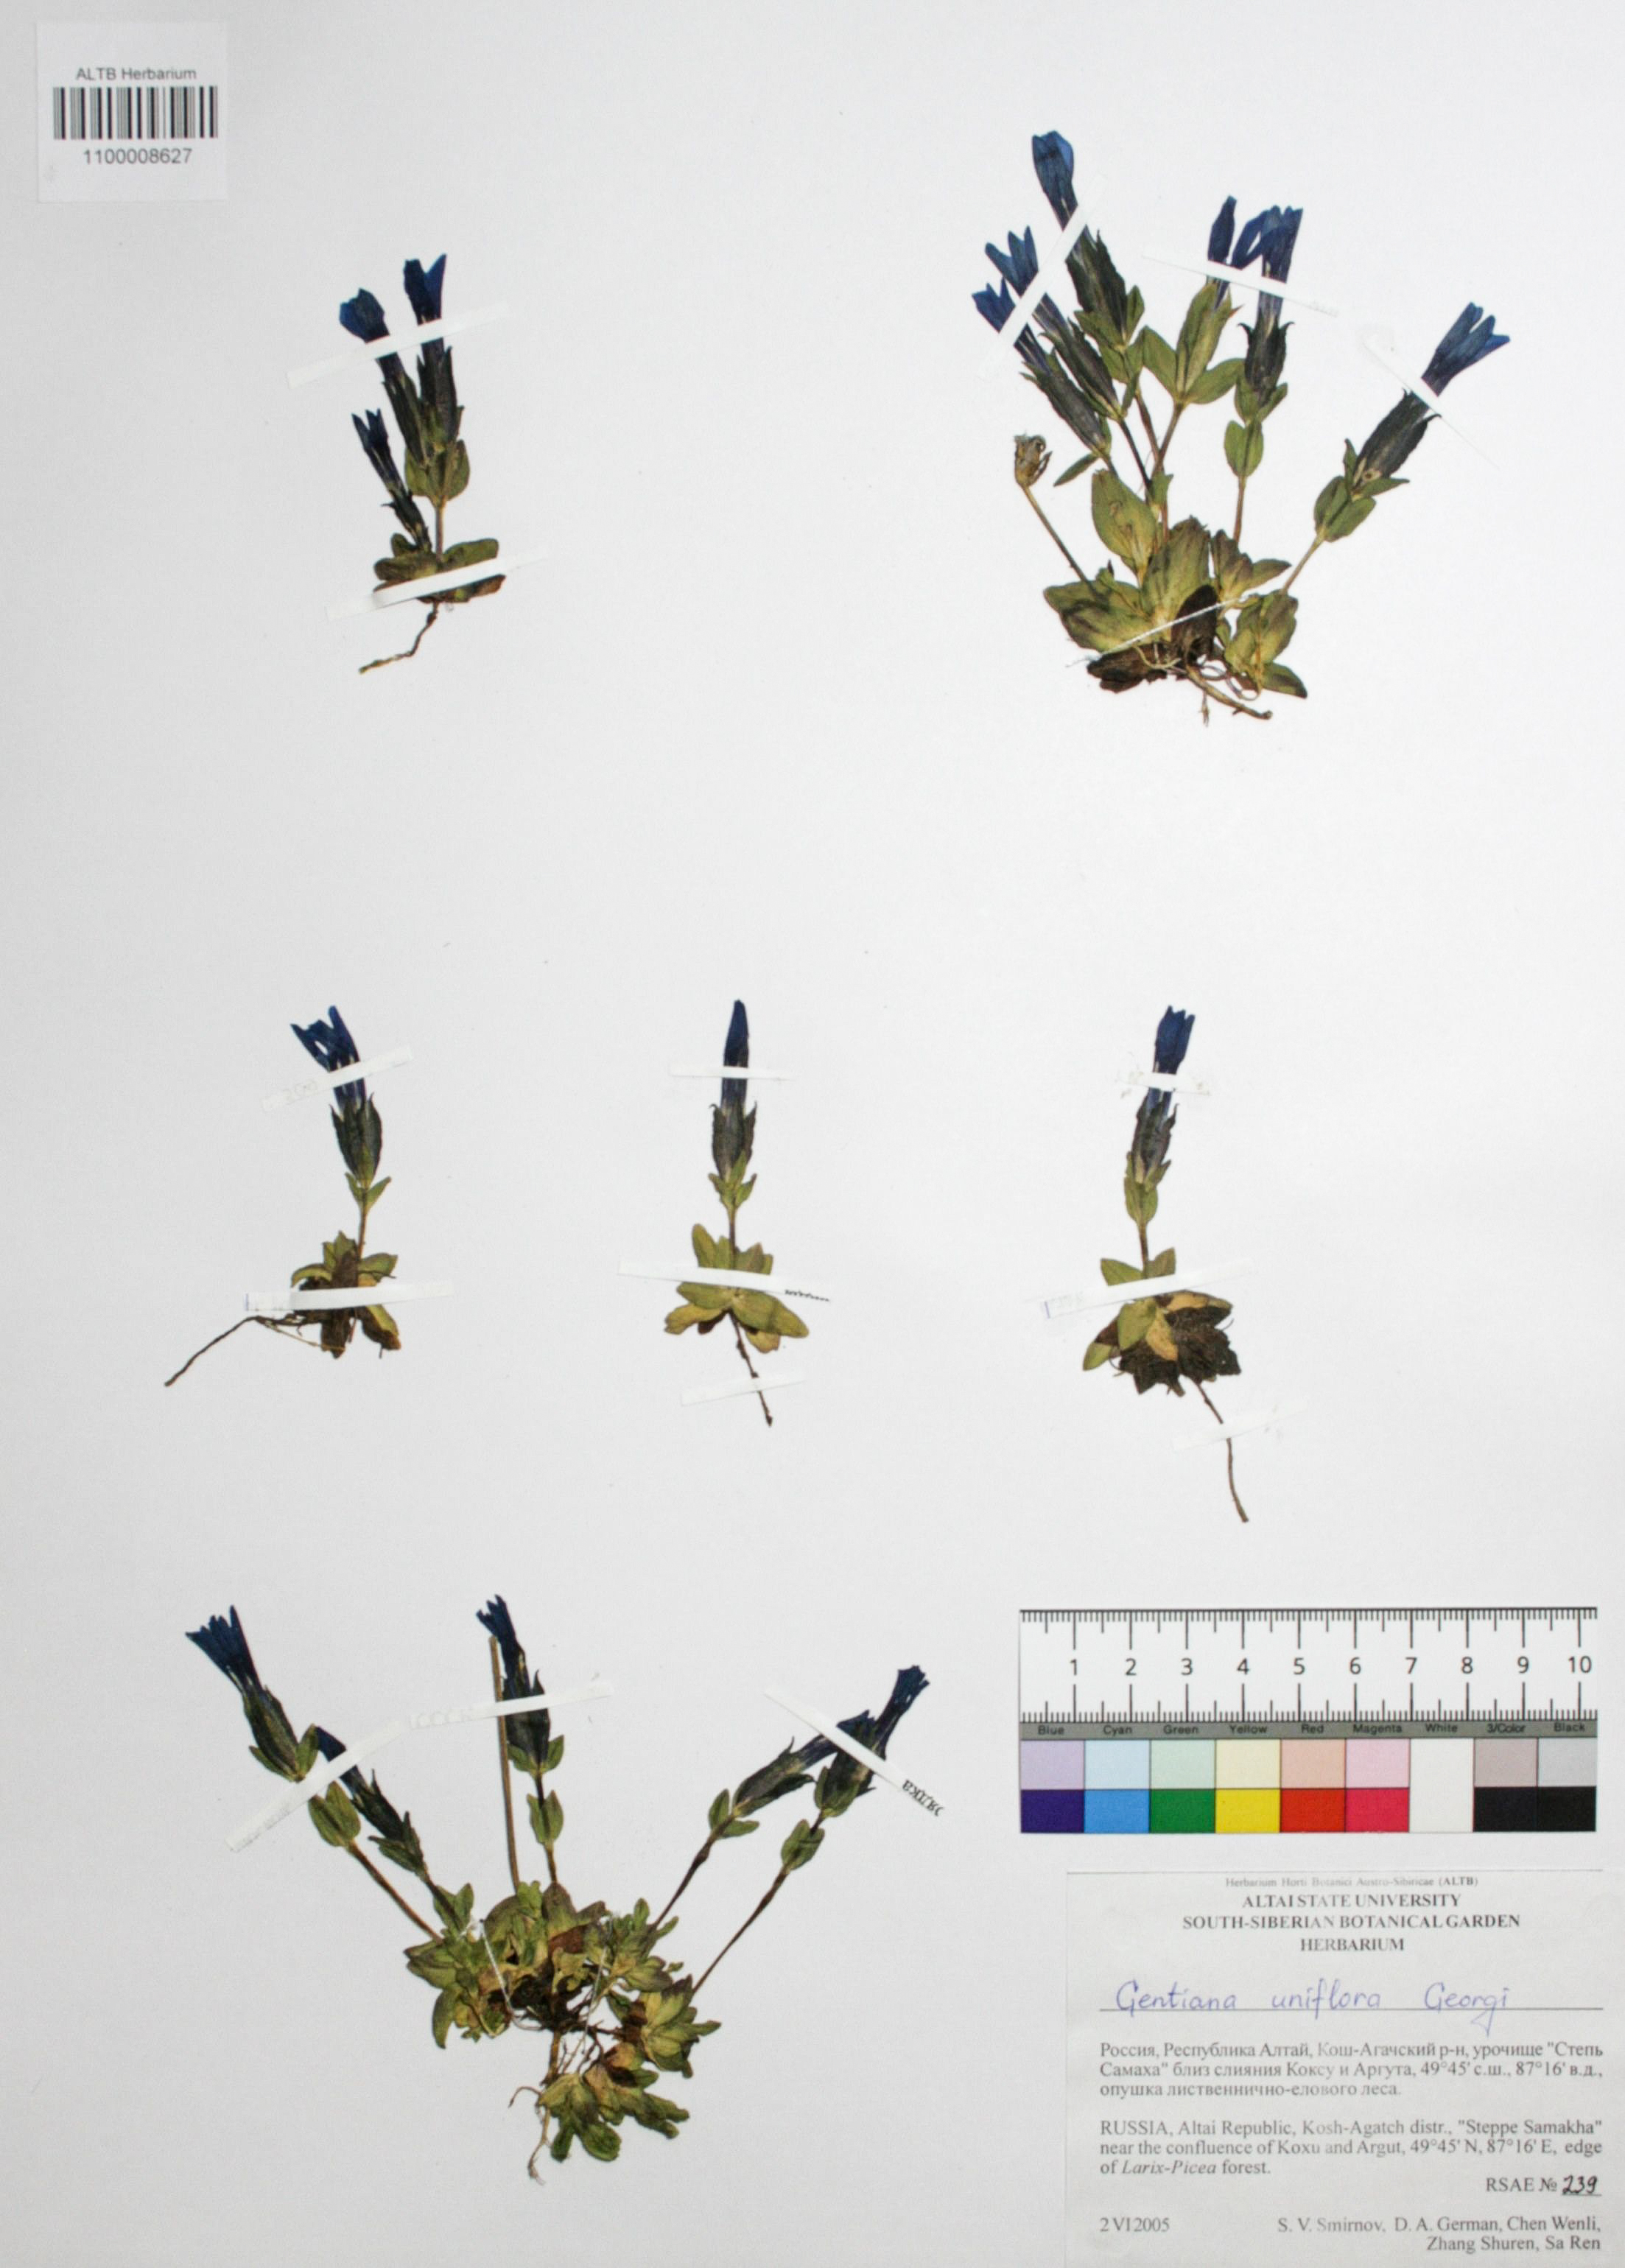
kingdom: Plantae
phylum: Tracheophyta
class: Magnoliopsida
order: Gentianales
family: Gentianaceae
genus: Gentiana
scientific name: Gentiana uniflora
